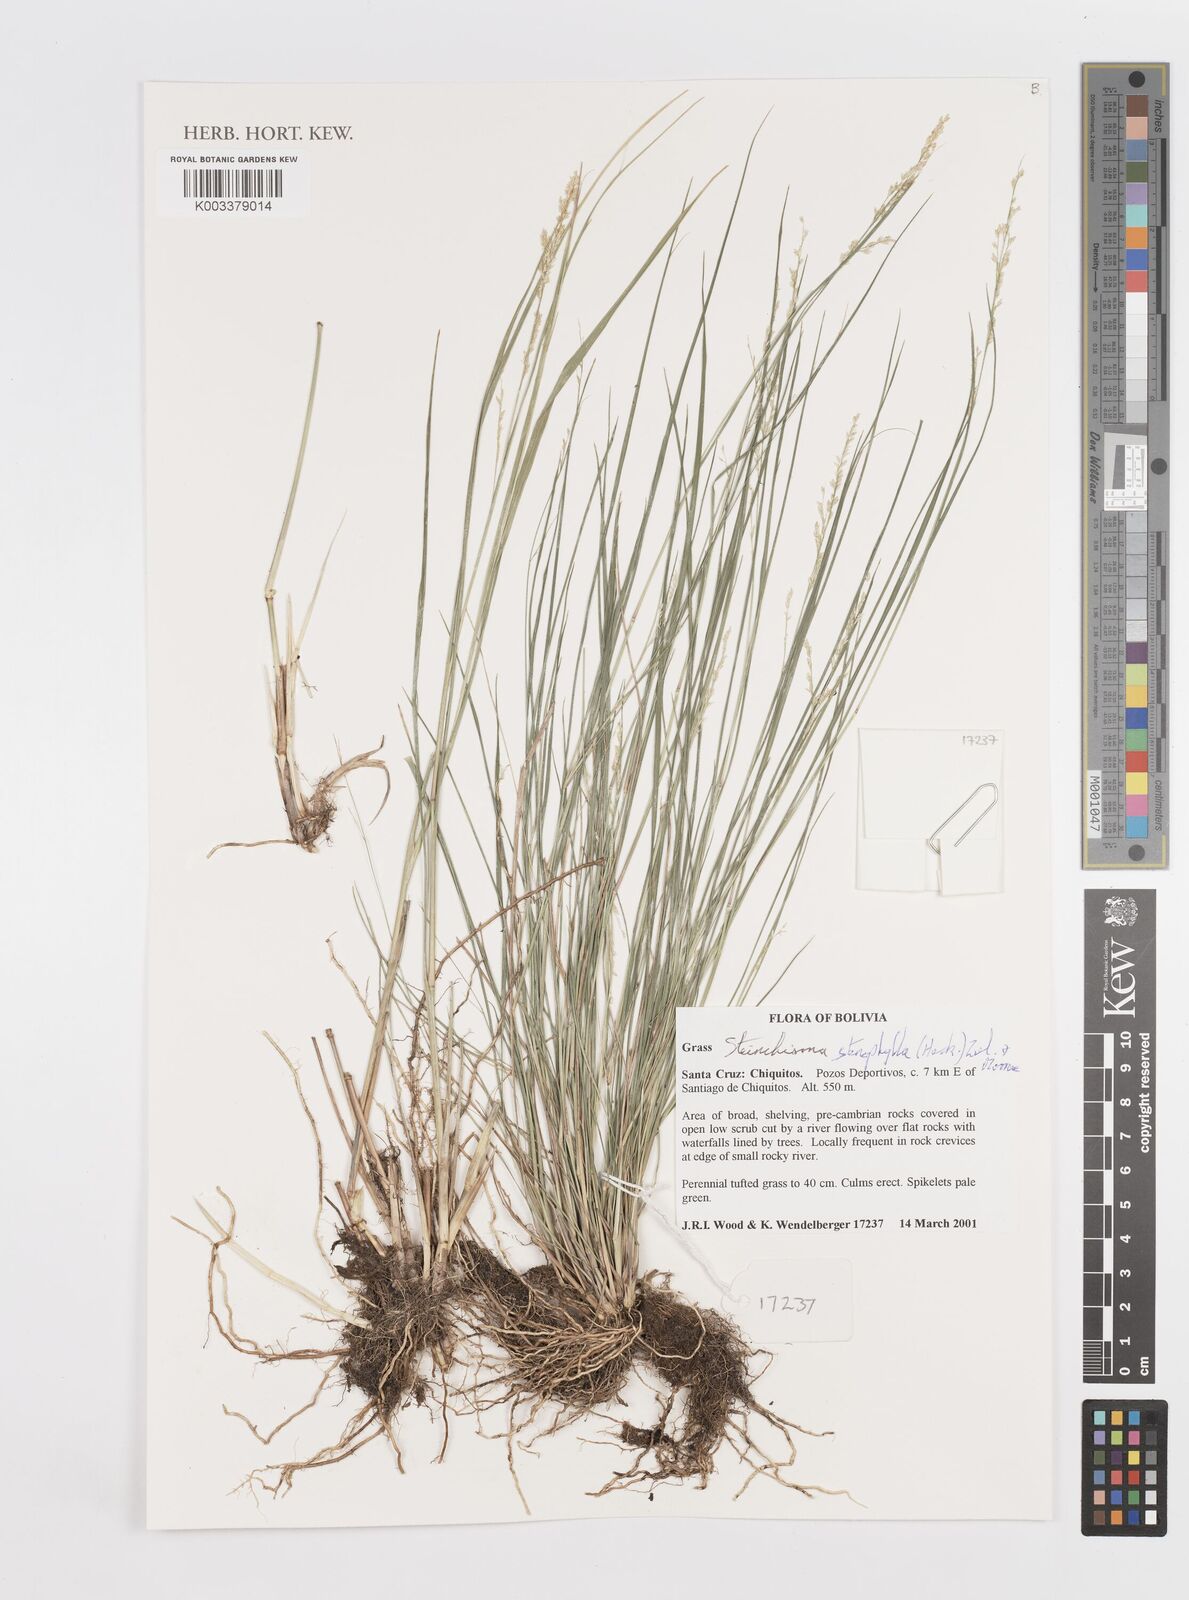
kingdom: Plantae
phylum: Tracheophyta
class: Liliopsida
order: Poales
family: Poaceae
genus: Steinchisma
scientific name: Steinchisma stenophyllum
